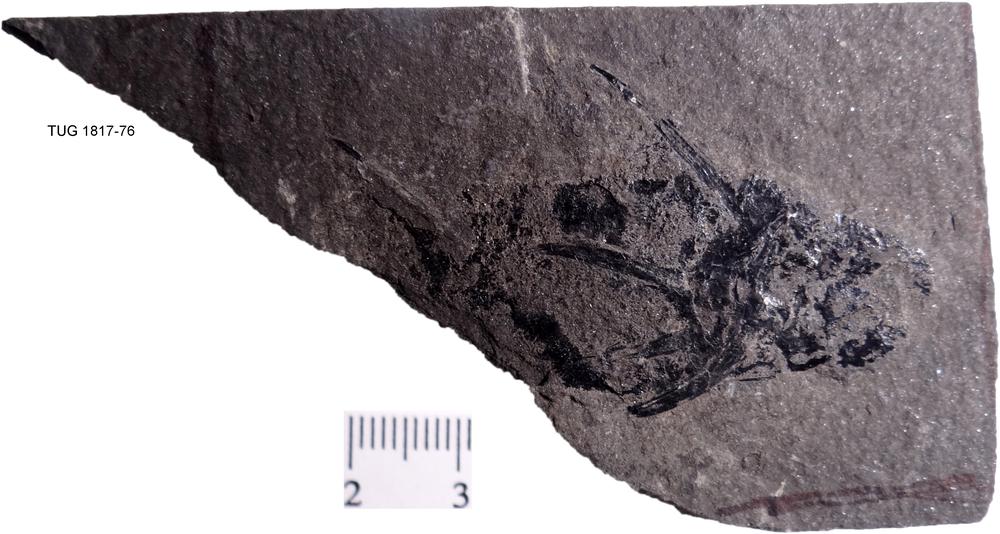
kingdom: Animalia
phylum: Chordata
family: Diplacanthidae
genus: Diplacanthus
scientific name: Diplacanthus crassisimus
